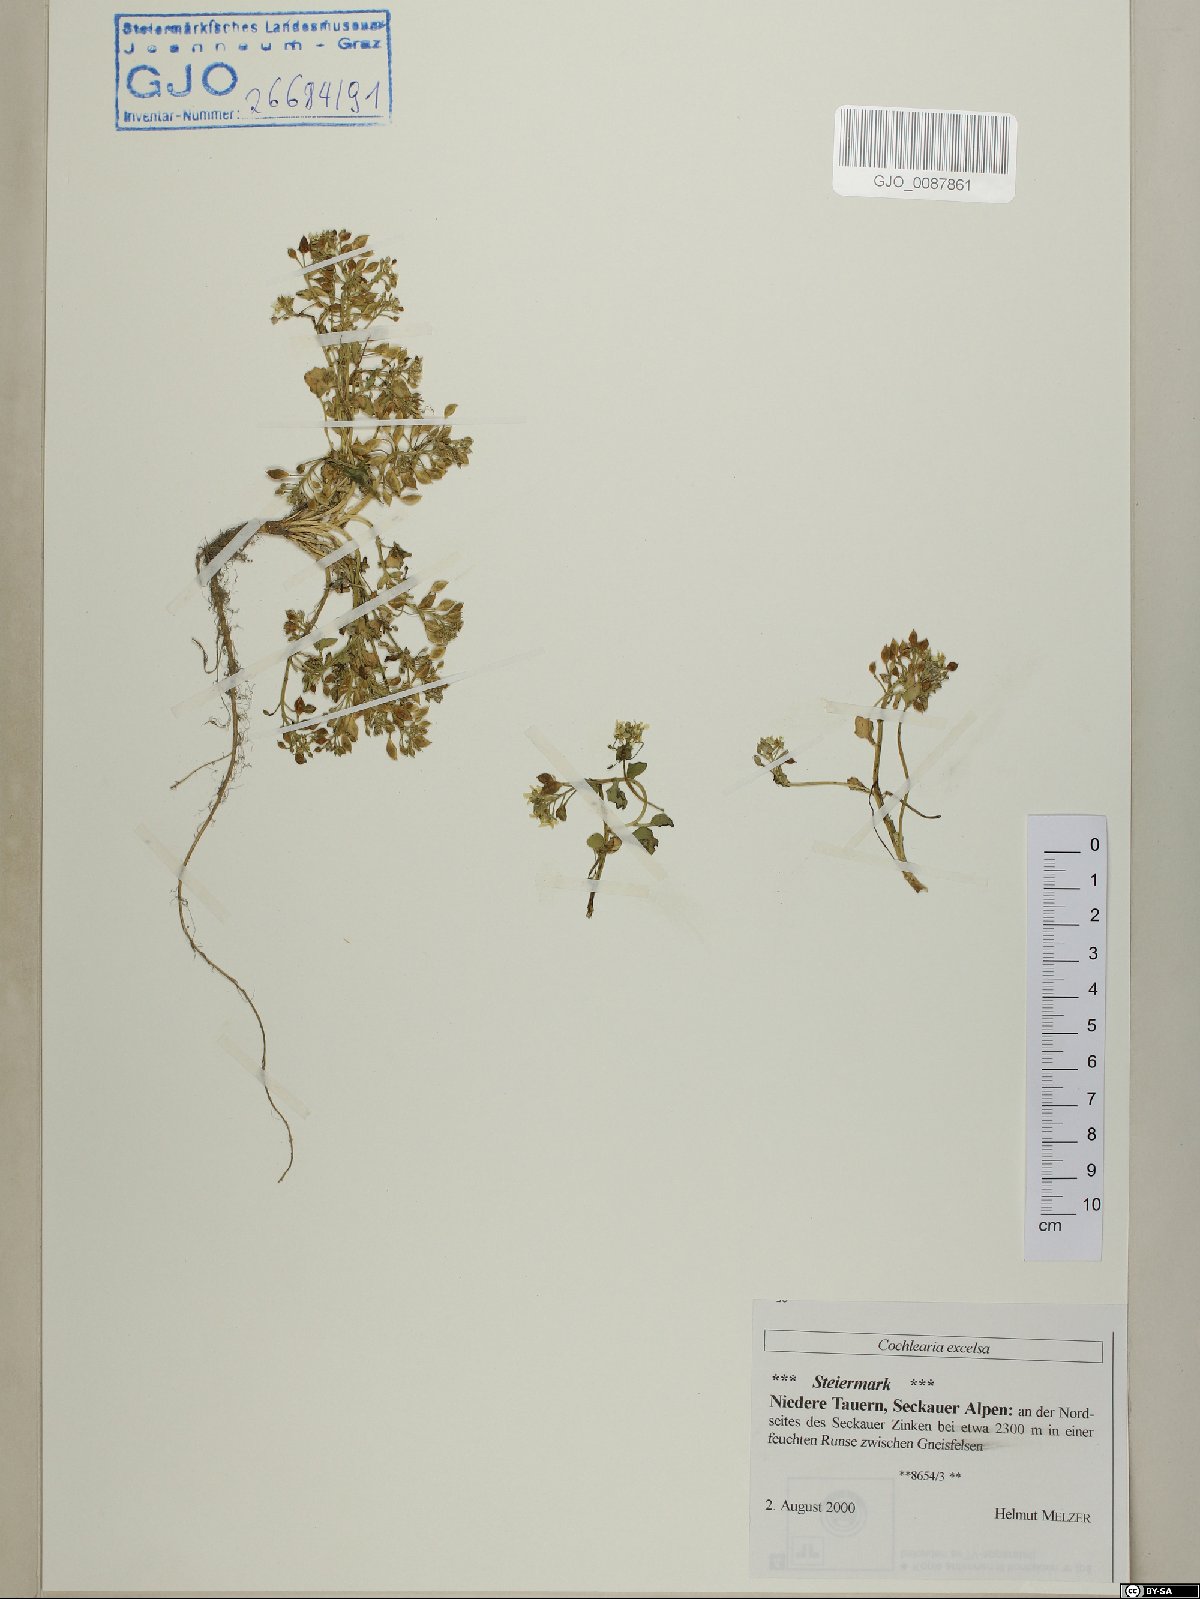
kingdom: Plantae
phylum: Tracheophyta
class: Magnoliopsida
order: Brassicales
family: Brassicaceae
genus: Cochlearia
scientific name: Cochlearia pyrenaica
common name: Upland scurvy-grass
